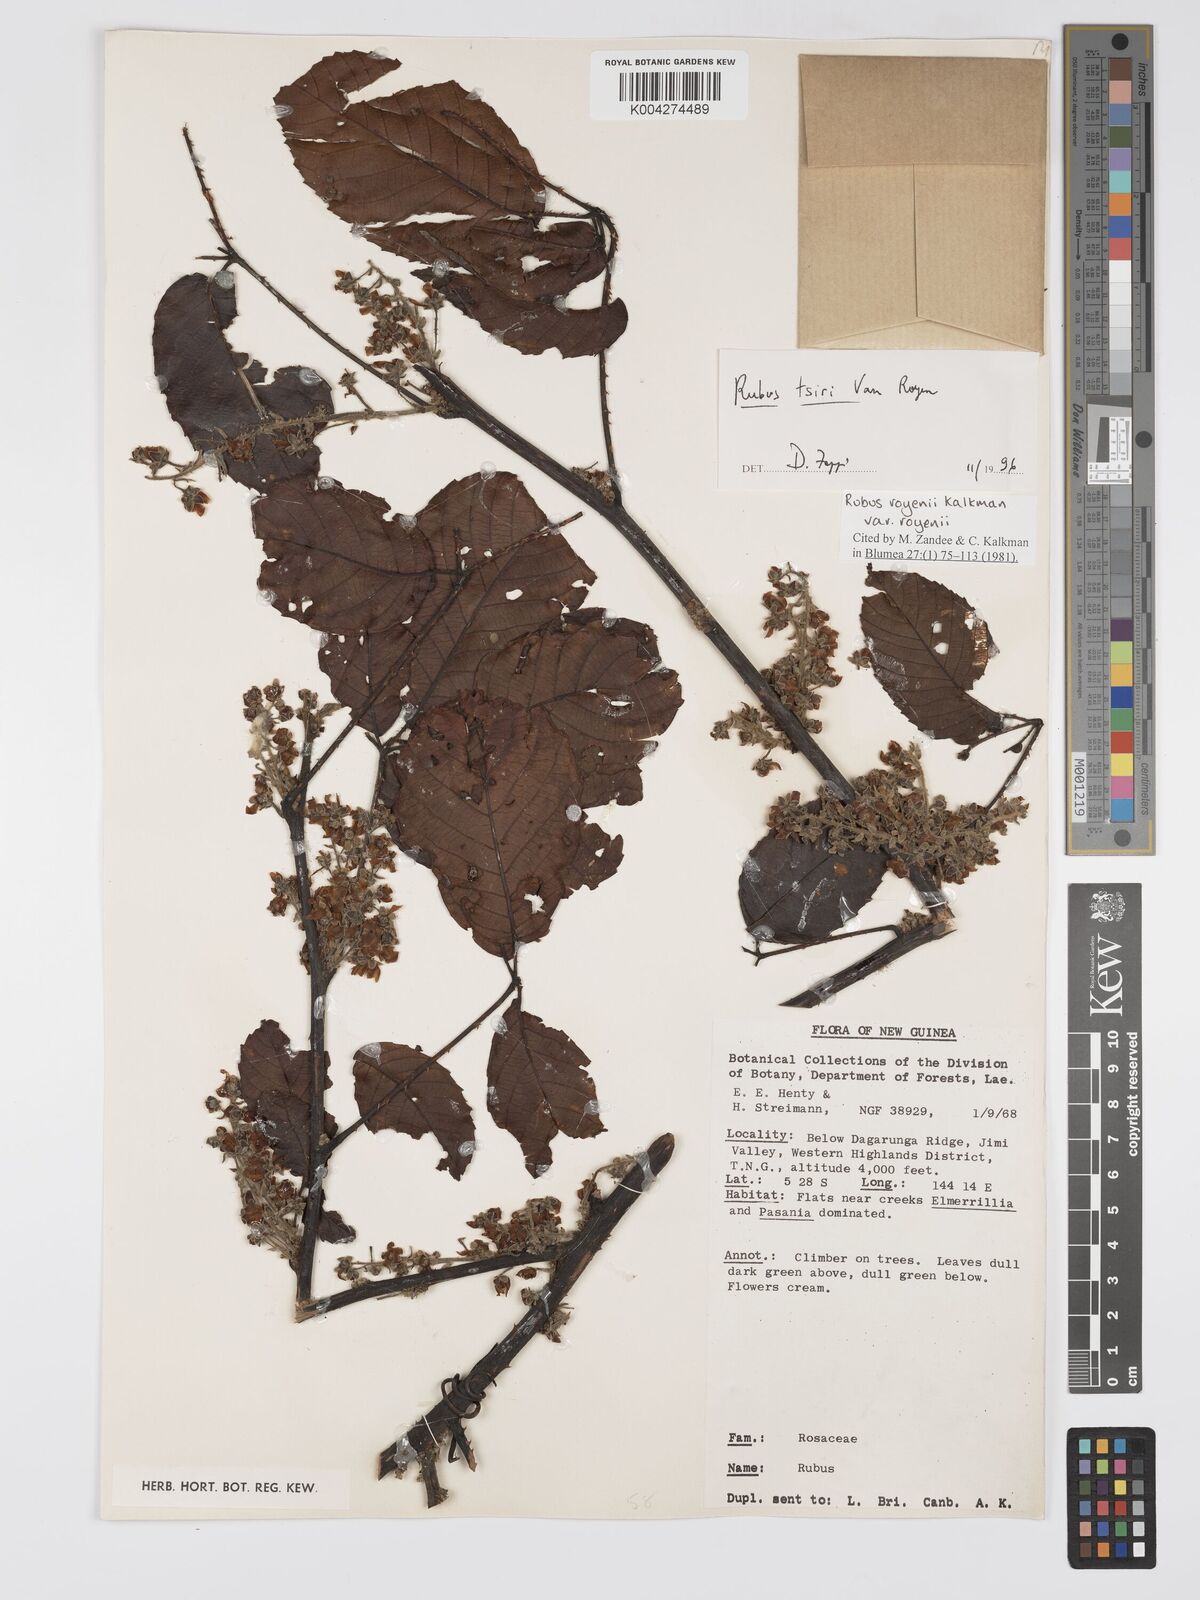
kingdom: Plantae
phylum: Tracheophyta
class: Magnoliopsida
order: Rosales
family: Rosaceae
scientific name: Rosaceae
